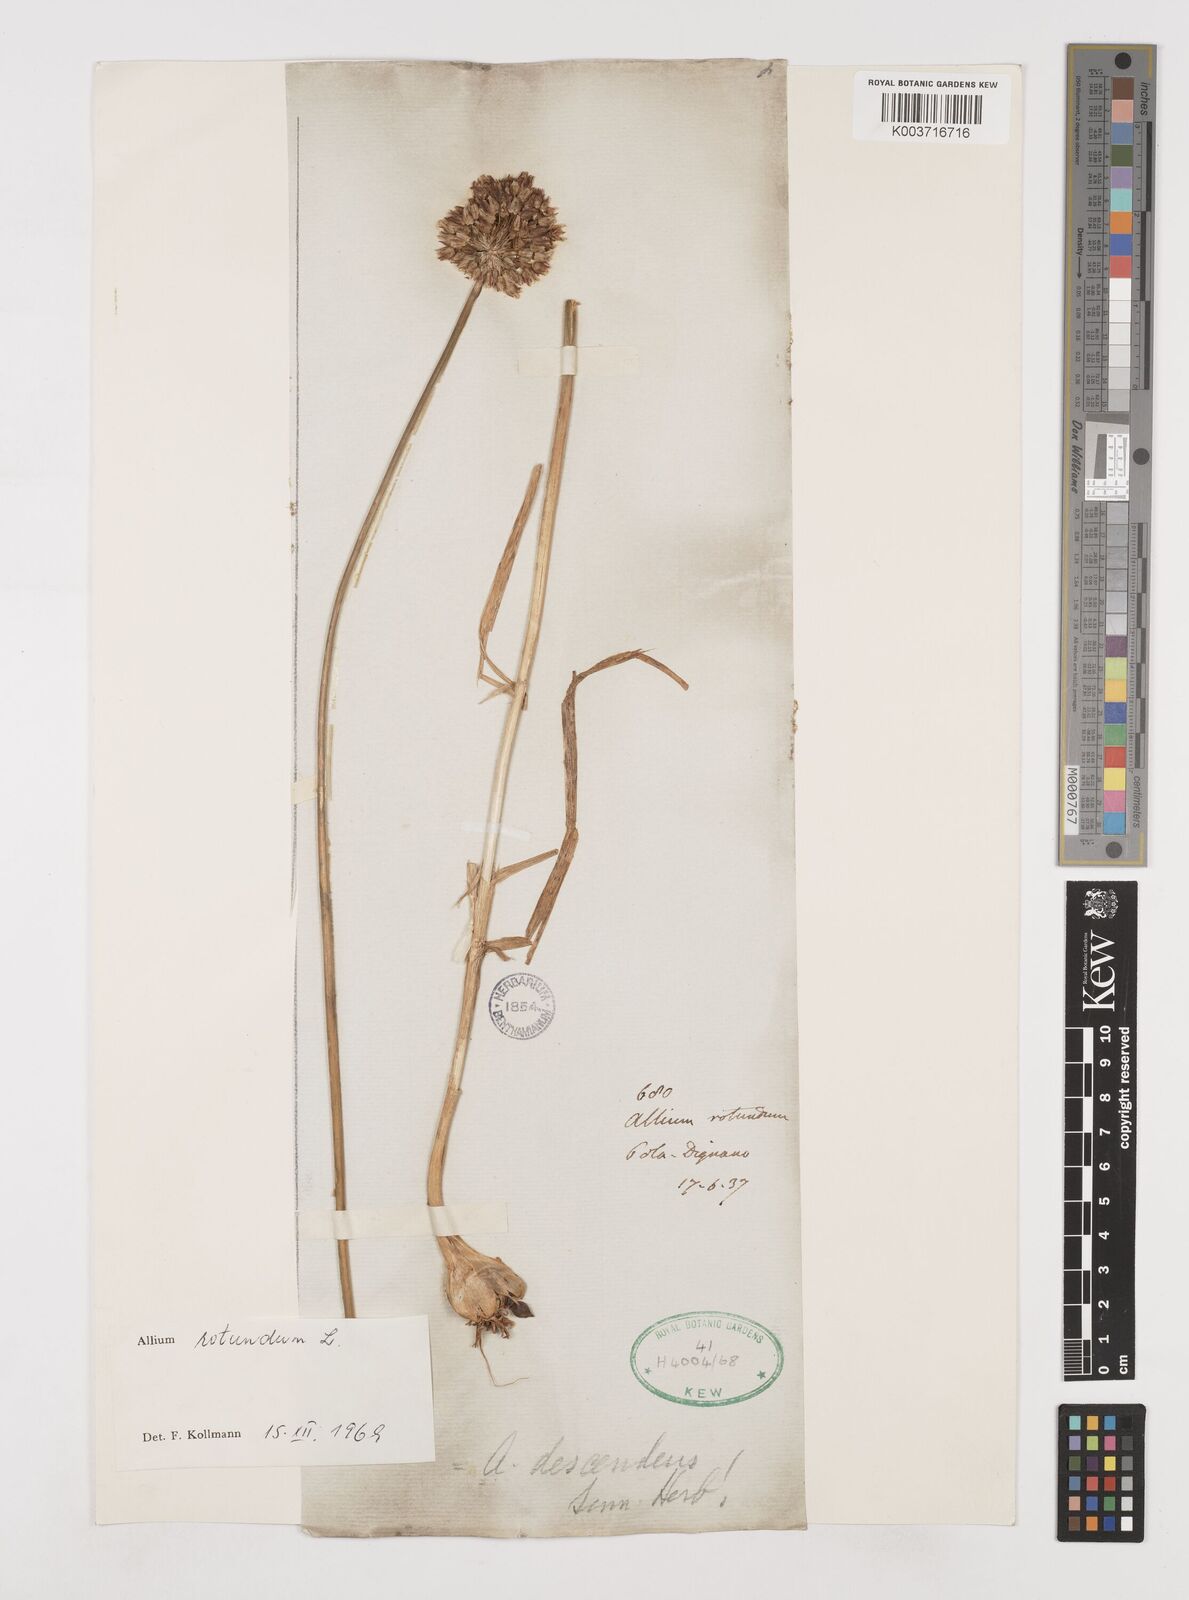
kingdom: Plantae
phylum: Tracheophyta
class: Liliopsida
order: Asparagales
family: Amaryllidaceae
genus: Allium
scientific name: Allium rotundum
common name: Sand leek
